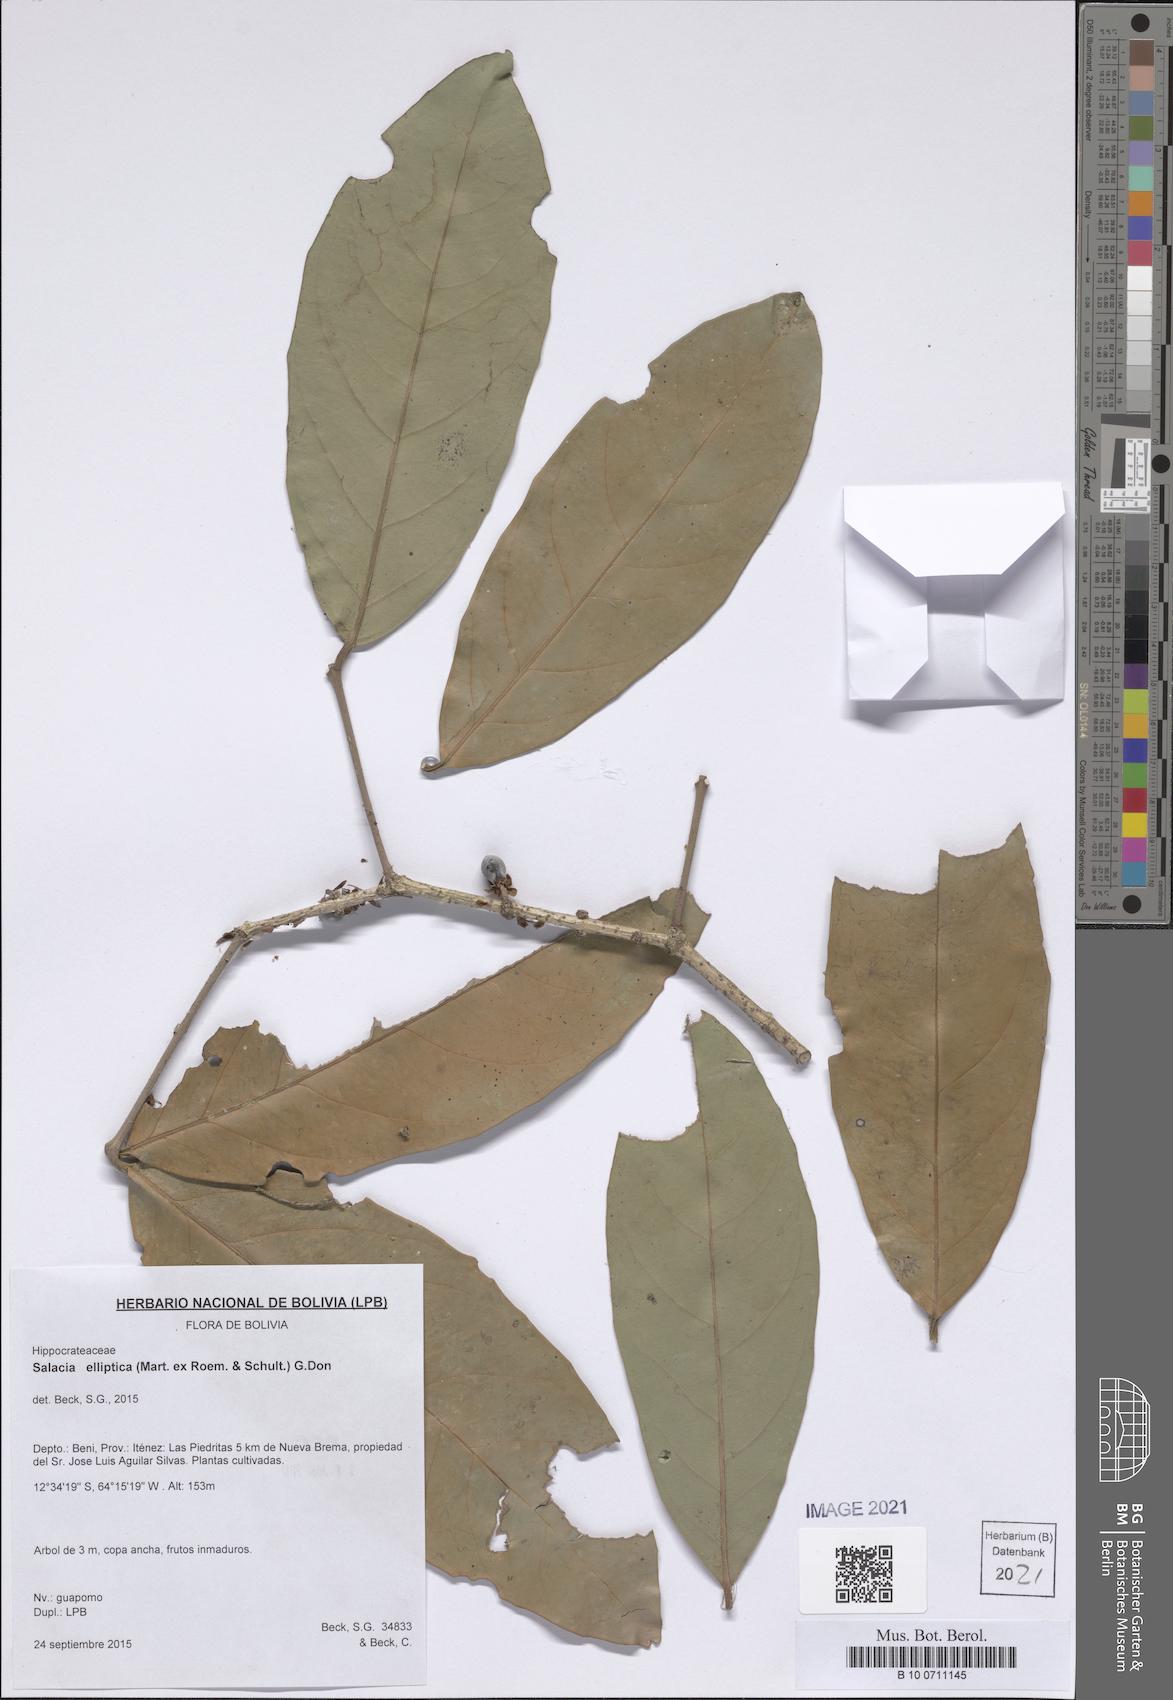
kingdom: Plantae
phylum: Tracheophyta
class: Magnoliopsida
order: Celastrales
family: Celastraceae
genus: Salacia
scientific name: Salacia elliptica
